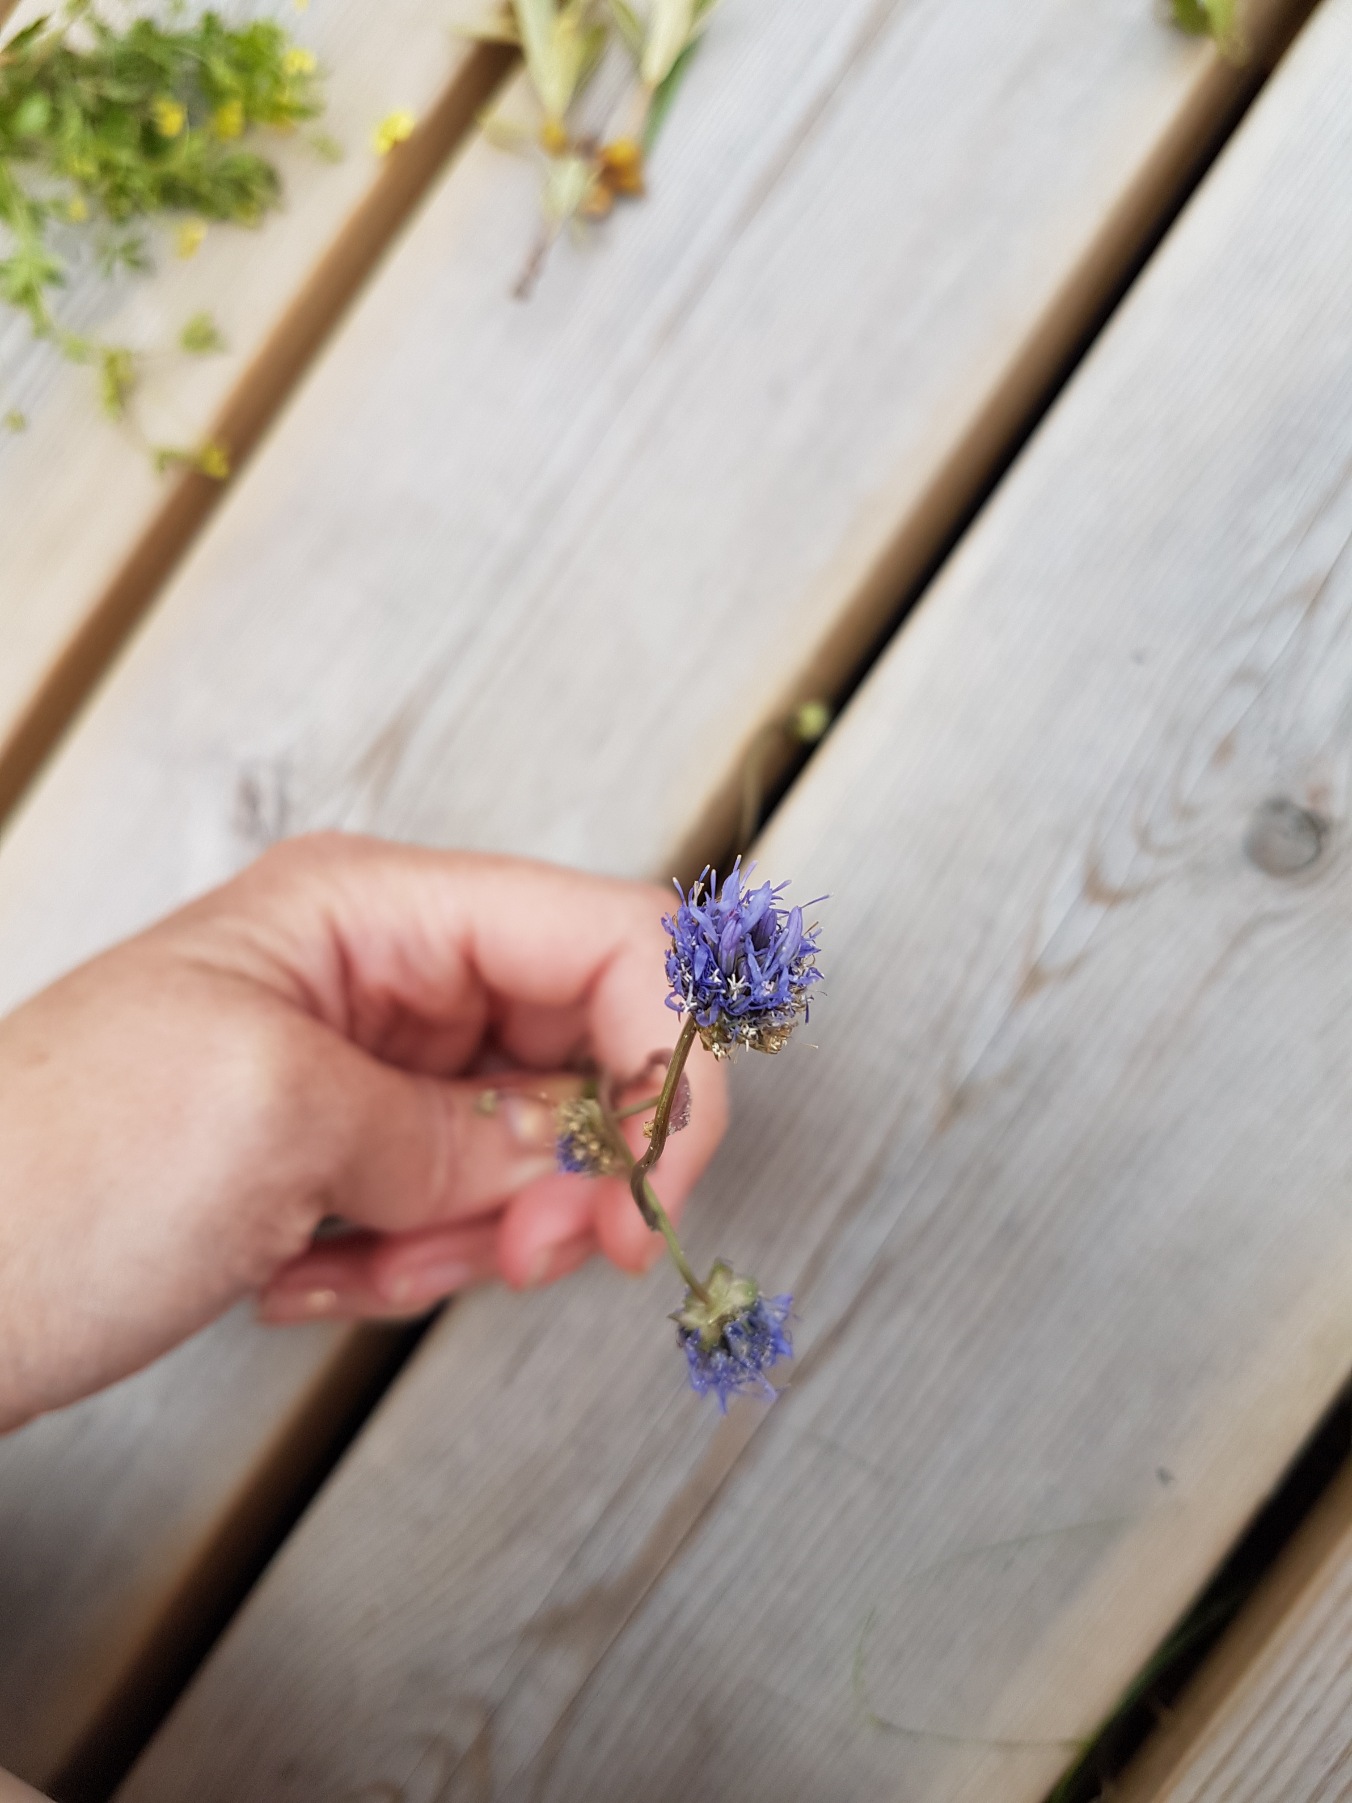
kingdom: Plantae
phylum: Tracheophyta
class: Magnoliopsida
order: Asterales
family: Campanulaceae
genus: Jasione
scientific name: Jasione montana
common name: Blåmunke
